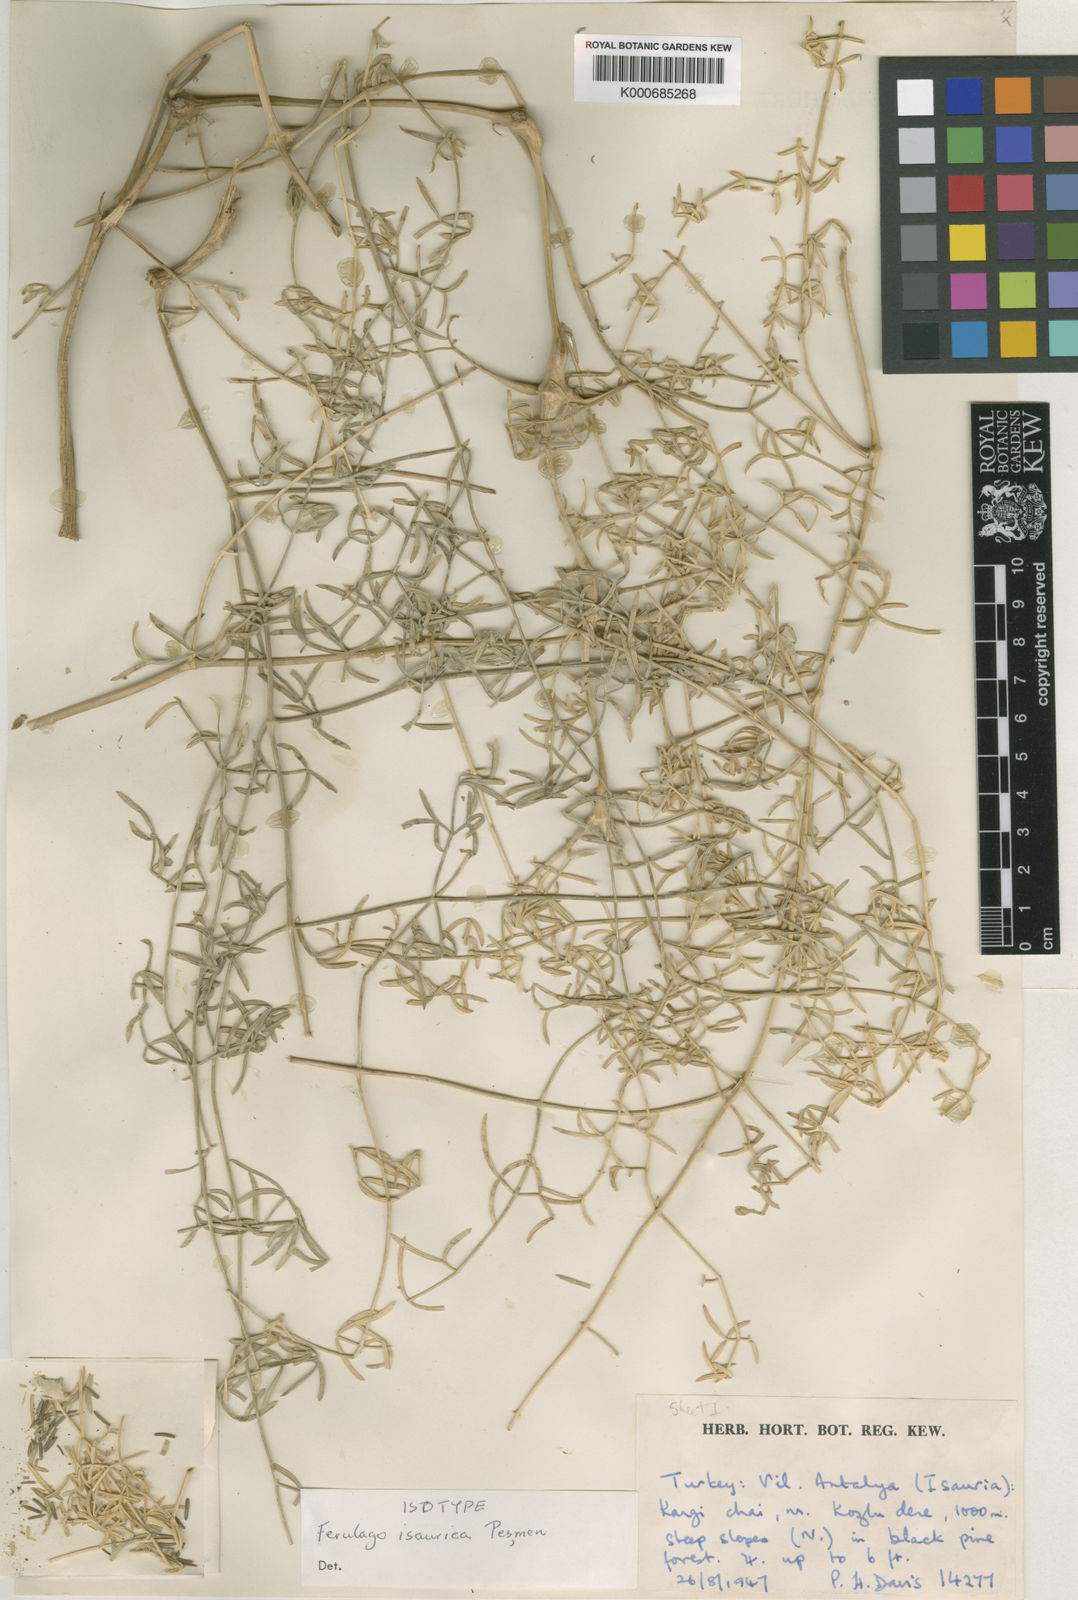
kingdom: Plantae
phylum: Tracheophyta
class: Magnoliopsida
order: Apiales
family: Apiaceae
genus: Ferulago
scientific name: Ferulago isaurica
